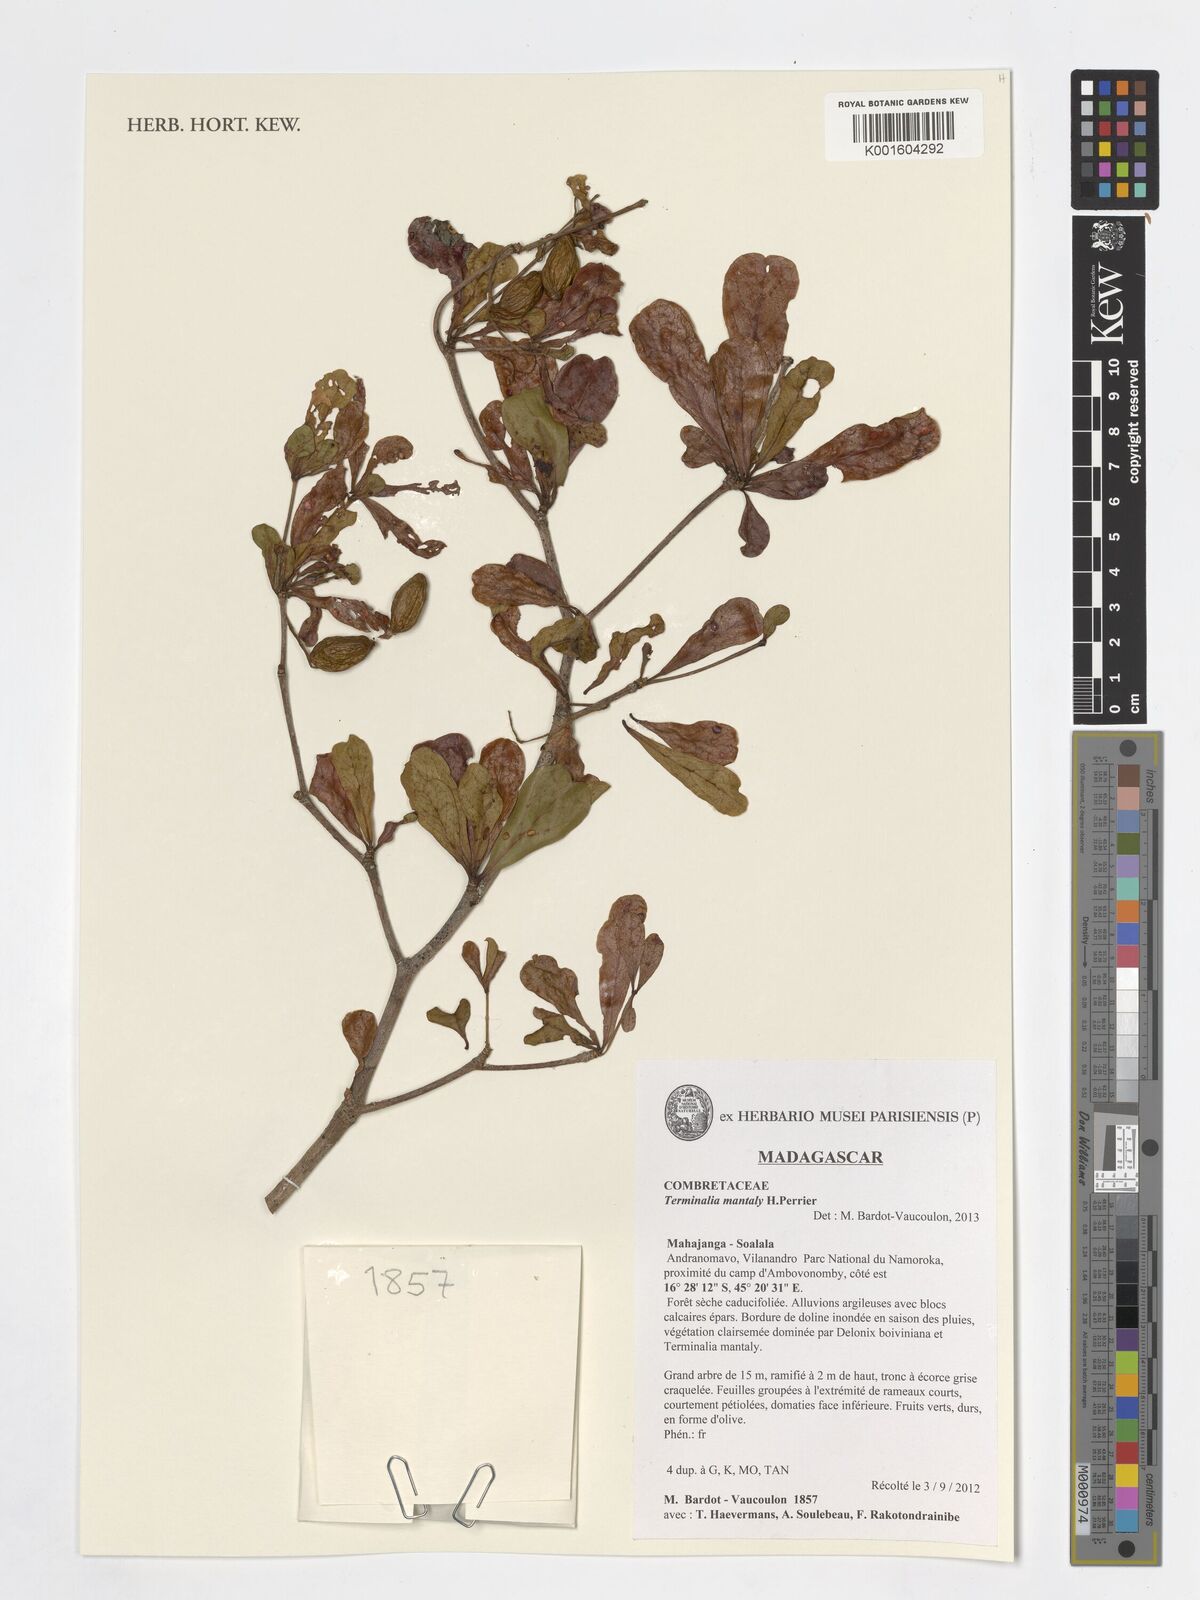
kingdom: Plantae
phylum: Tracheophyta
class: Magnoliopsida
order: Myrtales
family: Combretaceae
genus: Terminalia
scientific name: Terminalia neotaliala
